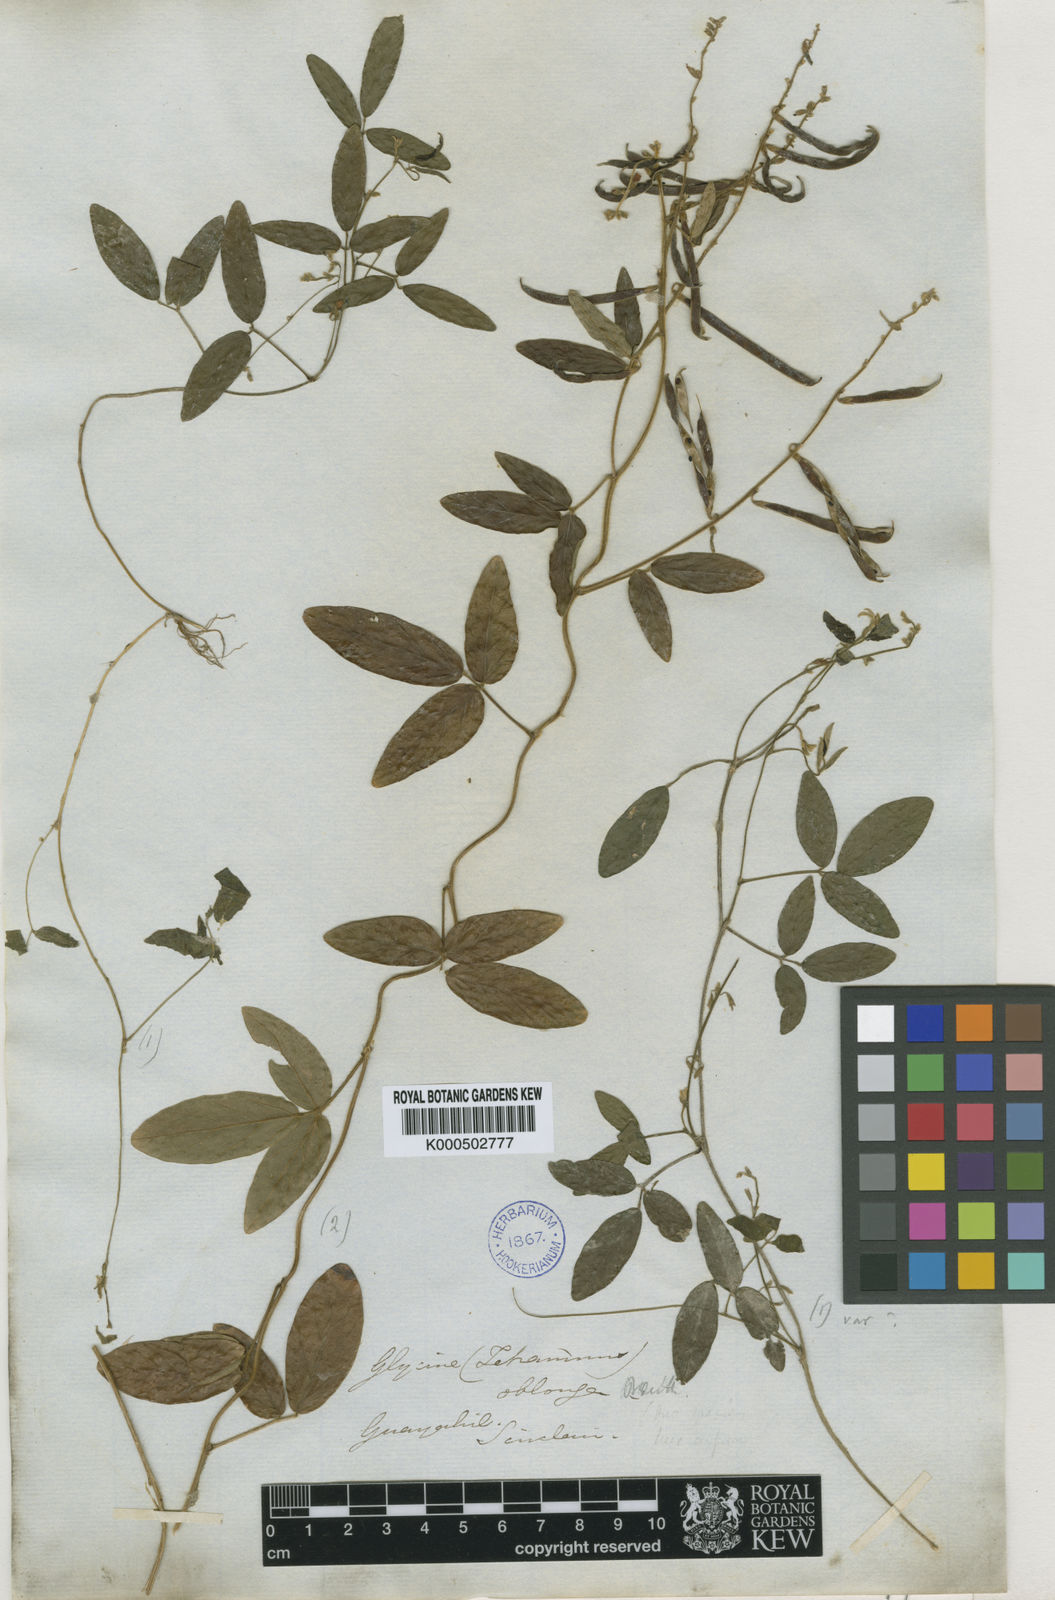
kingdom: Plantae
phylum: Tracheophyta
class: Magnoliopsida
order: Fabales
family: Fabaceae
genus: Teramnus
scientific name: Teramnus volubilis
